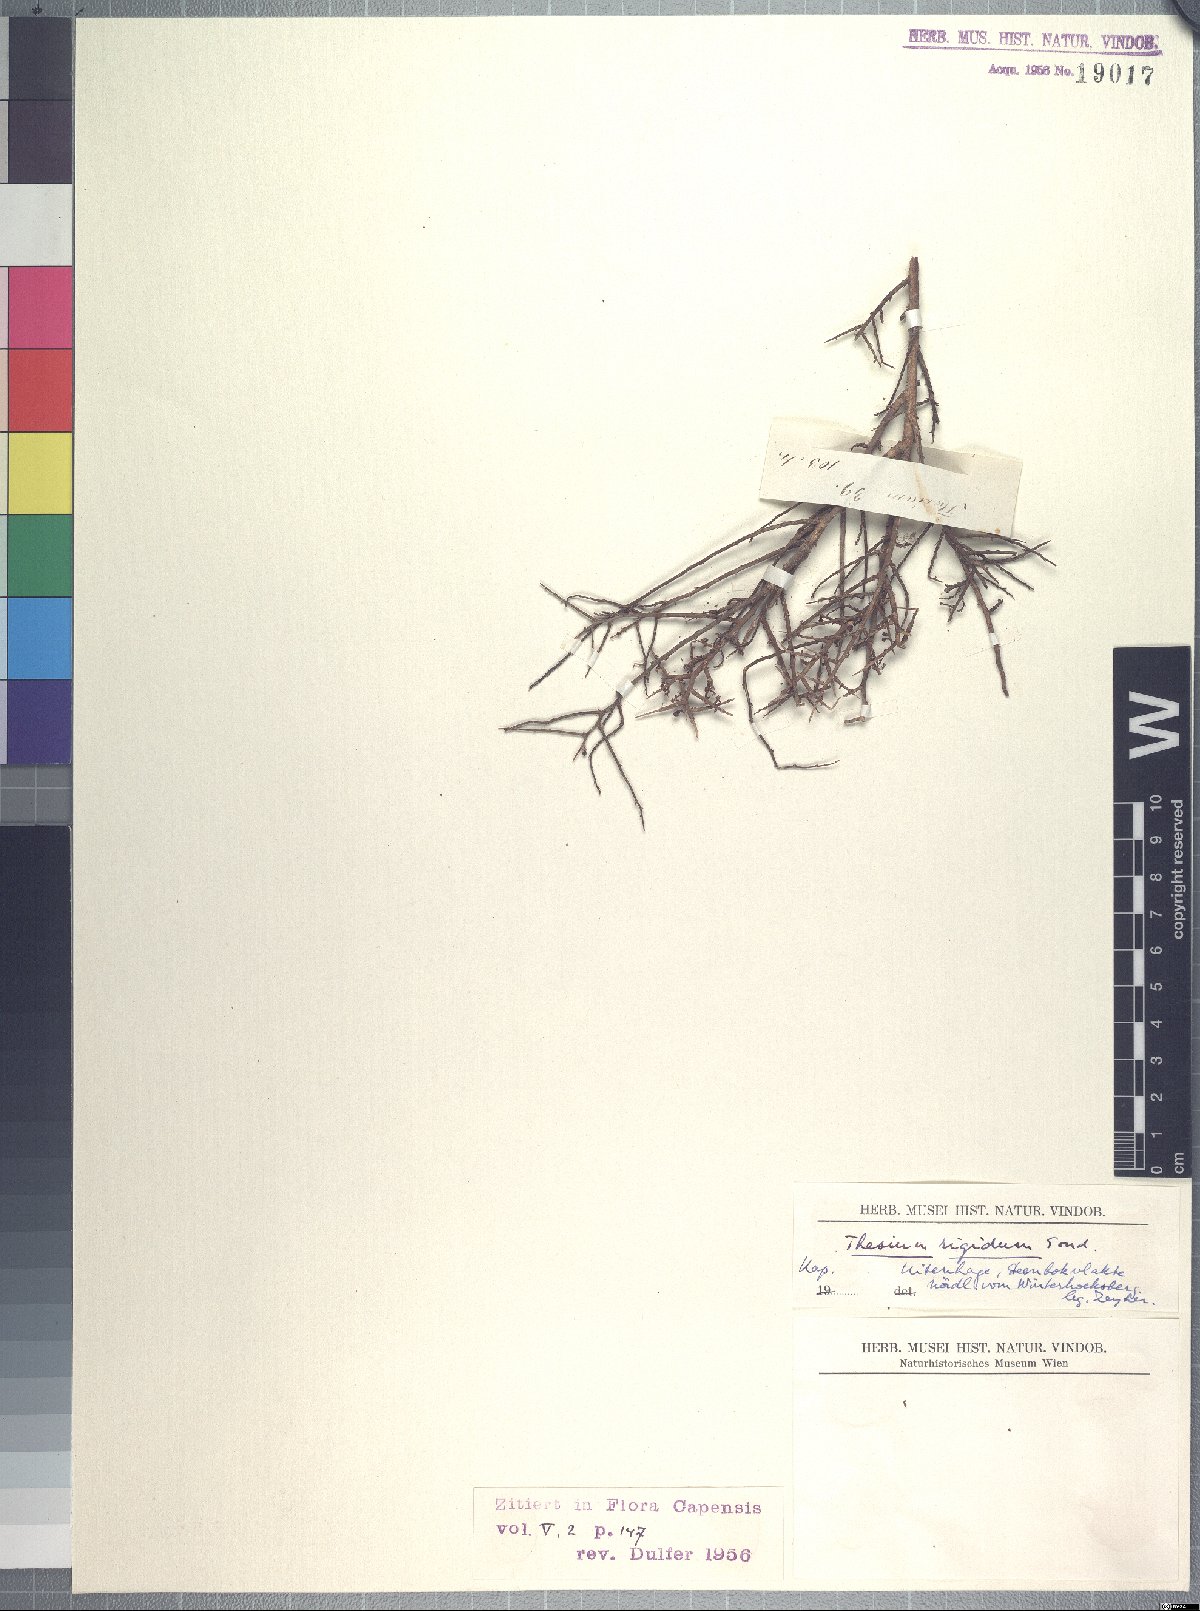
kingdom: Plantae
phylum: Tracheophyta
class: Magnoliopsida
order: Santalales
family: Thesiaceae
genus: Lacomucinaea
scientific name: Lacomucinaea lineata
